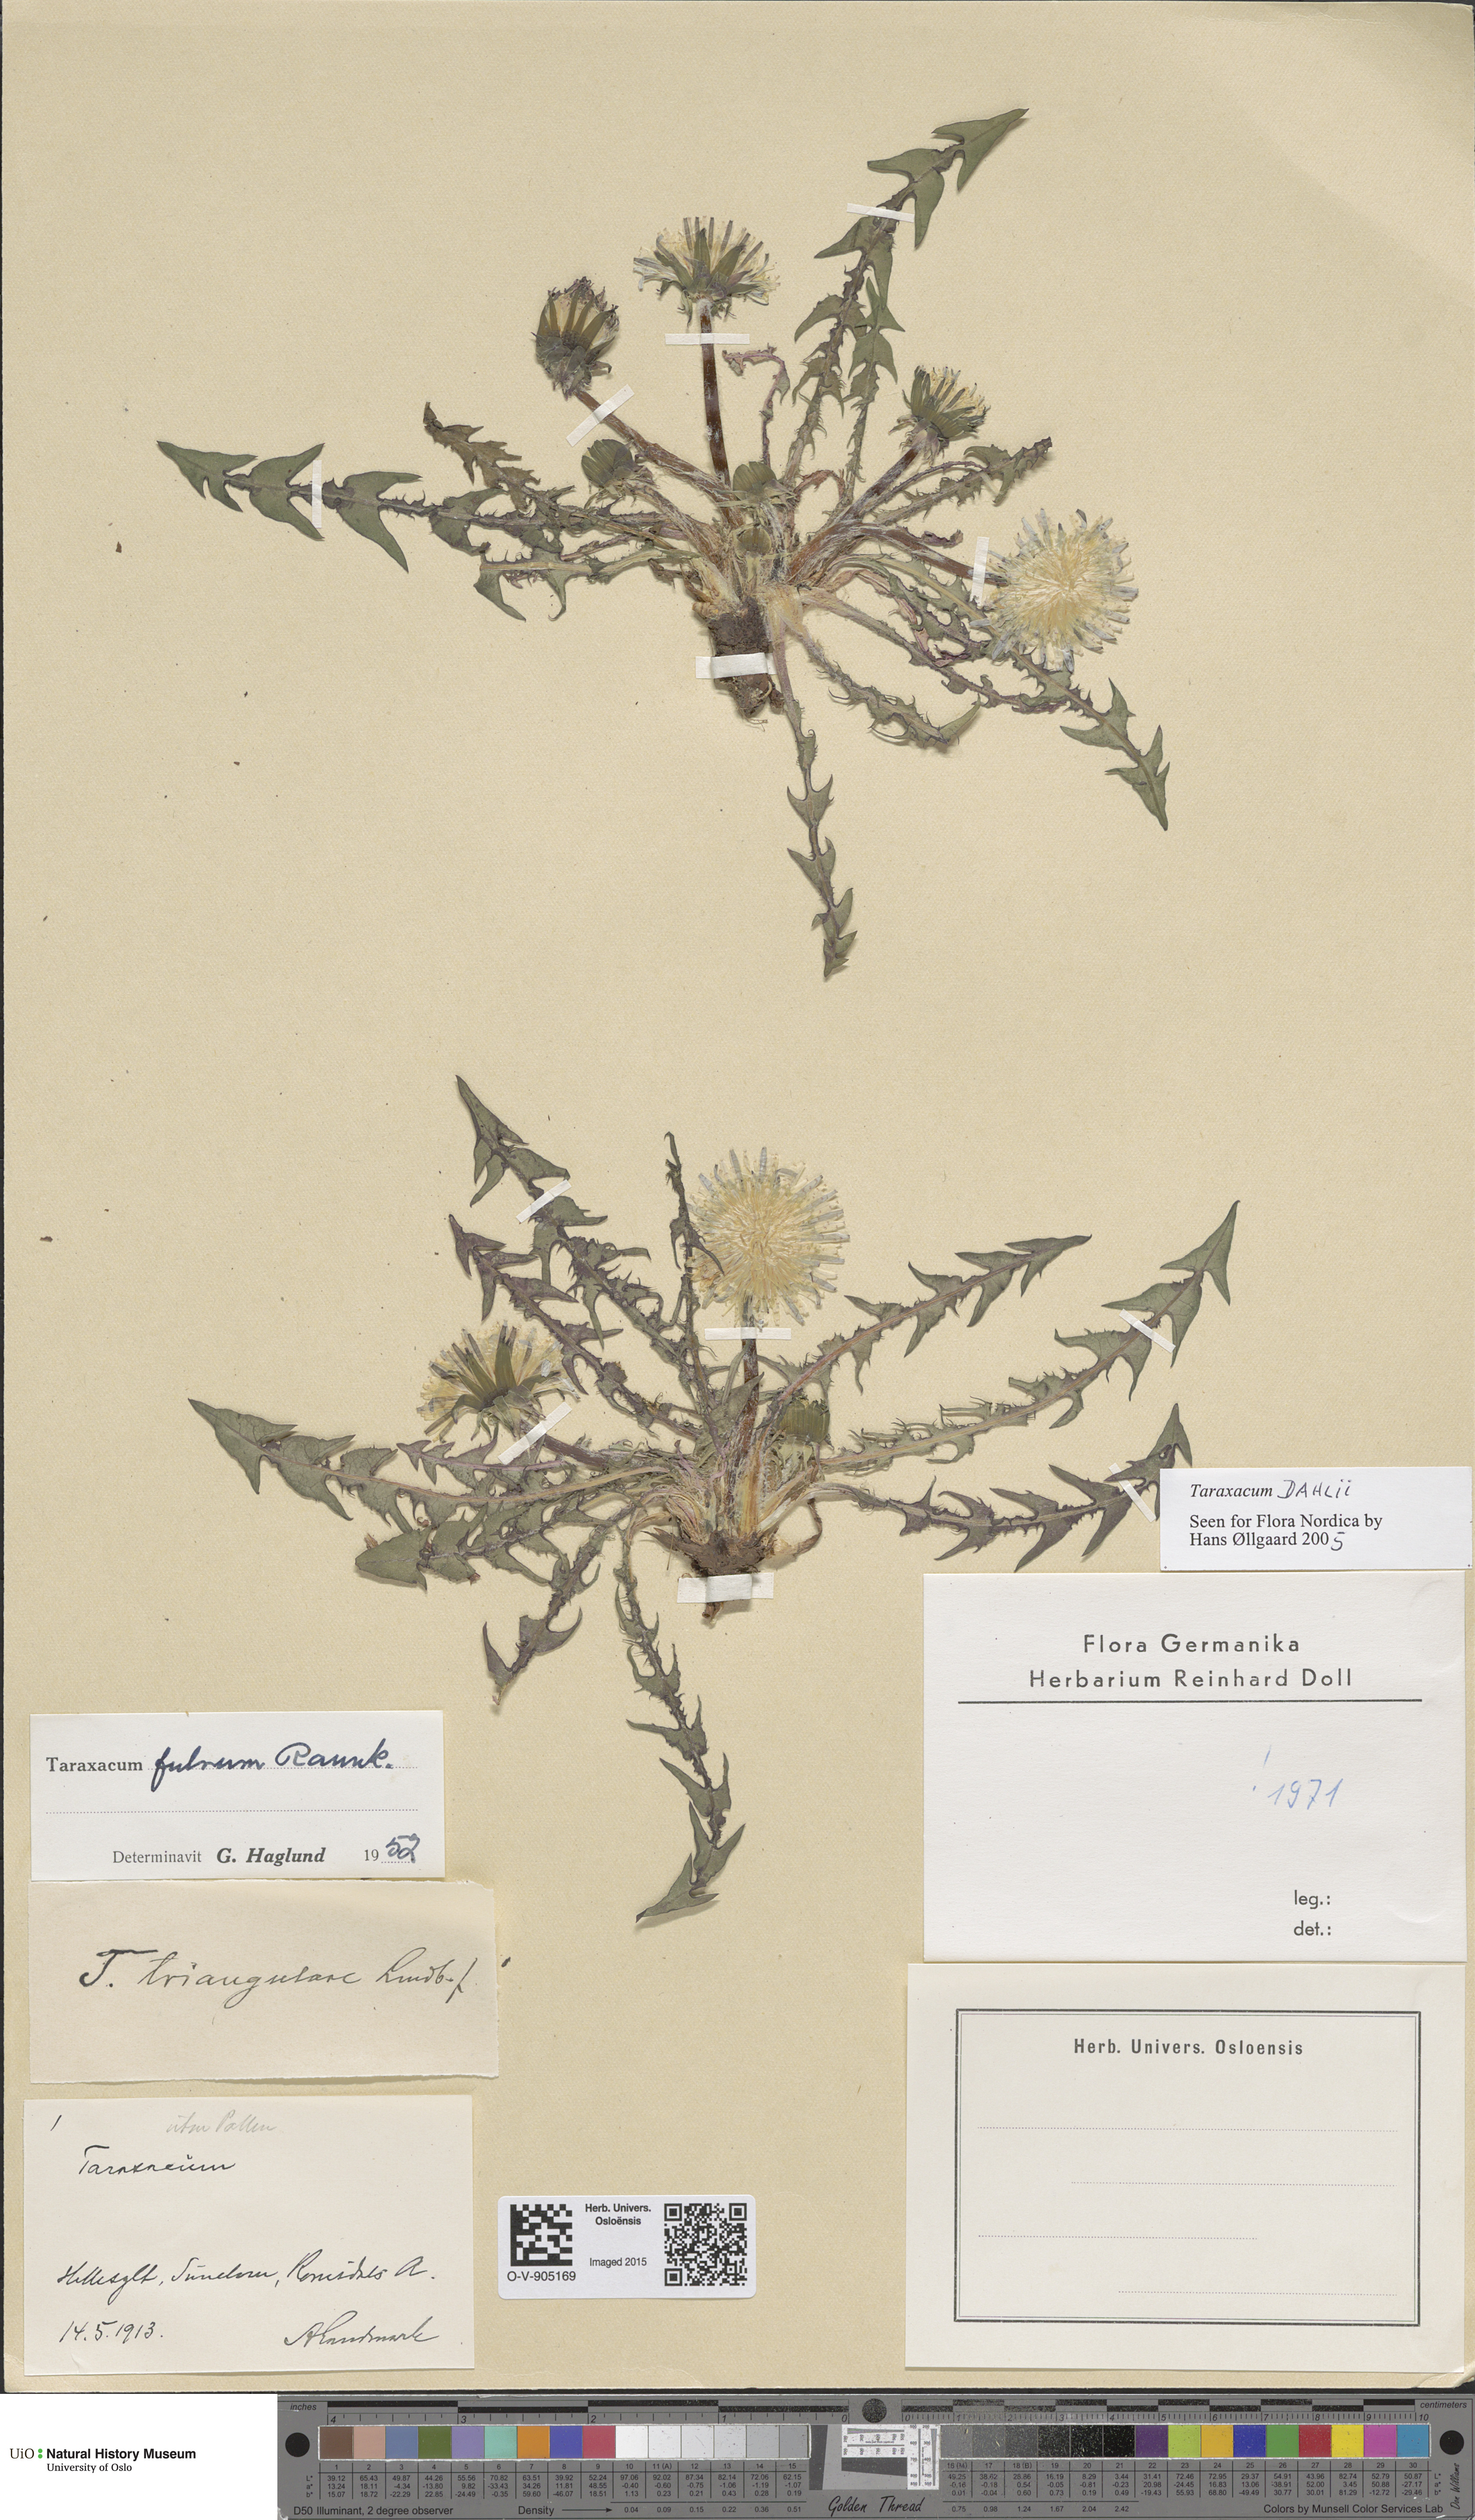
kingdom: Plantae
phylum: Tracheophyta
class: Magnoliopsida
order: Asterales
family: Asteraceae
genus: Taraxacum
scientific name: Taraxacum dahlii
